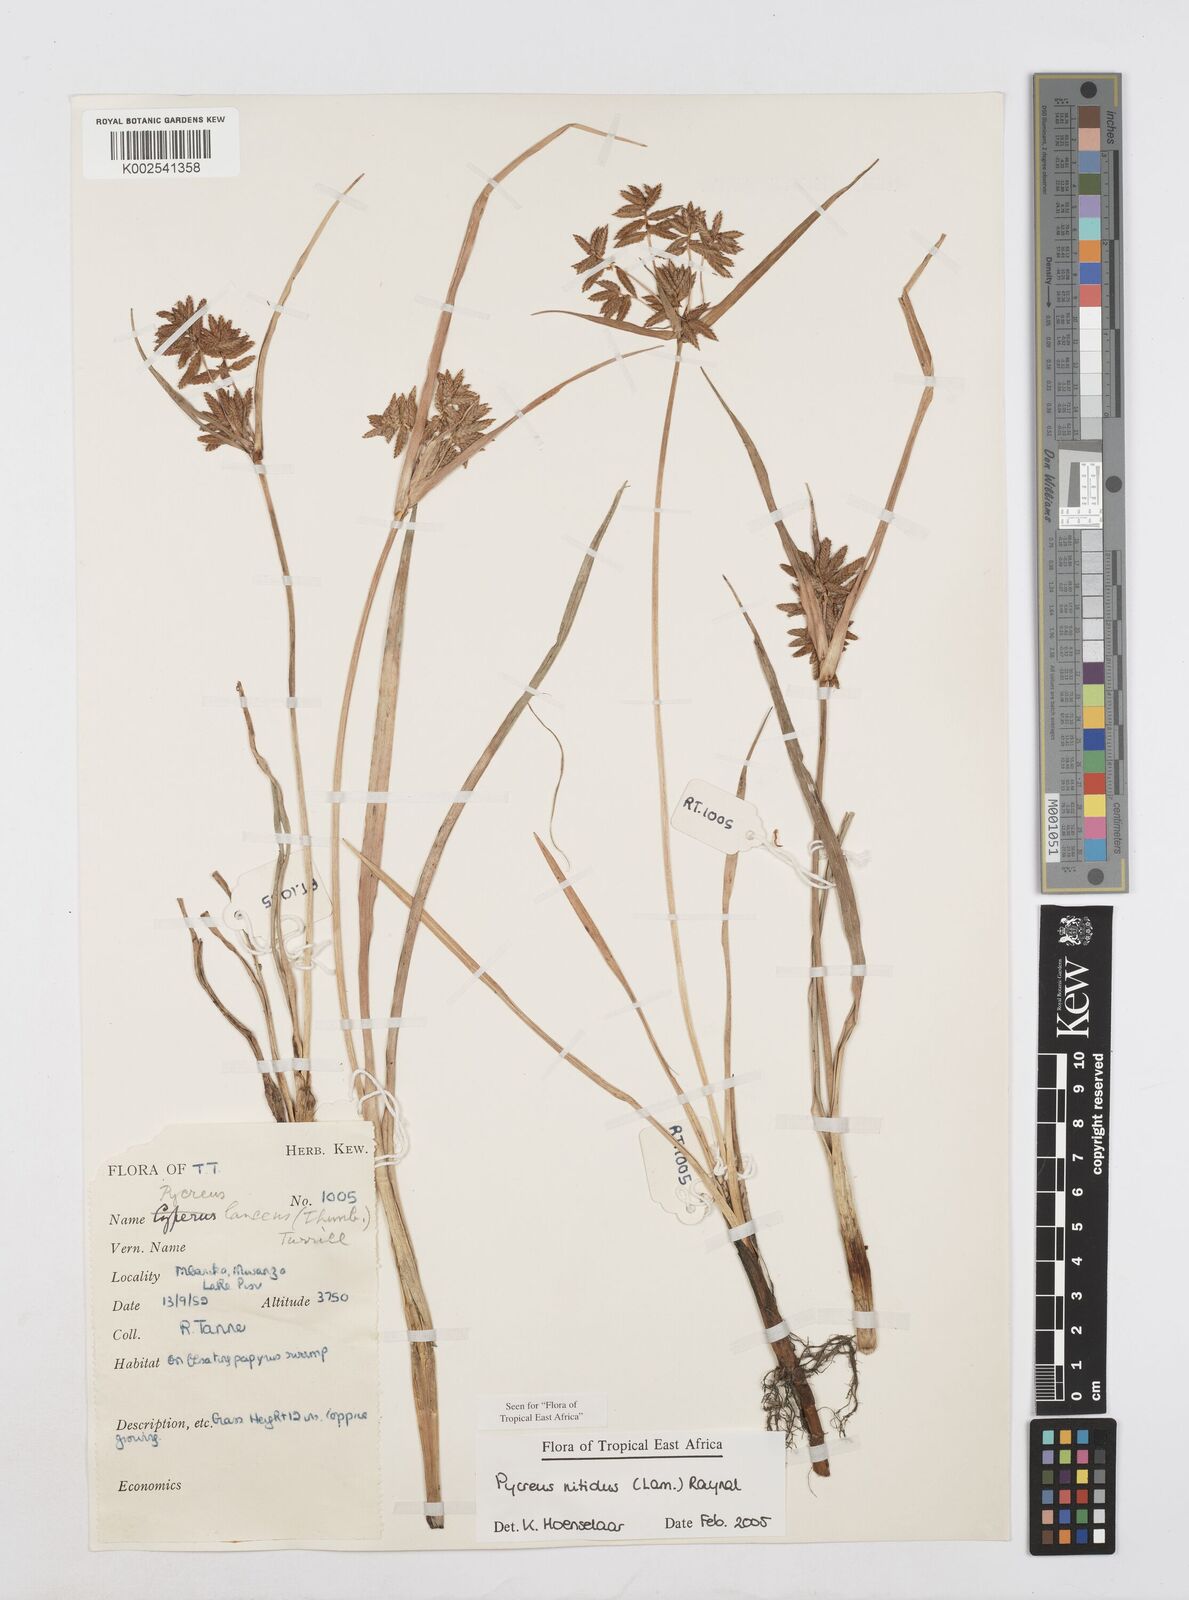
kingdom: Plantae
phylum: Tracheophyta
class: Liliopsida
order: Poales
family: Cyperaceae
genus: Cyperus
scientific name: Cyperus nitidus
